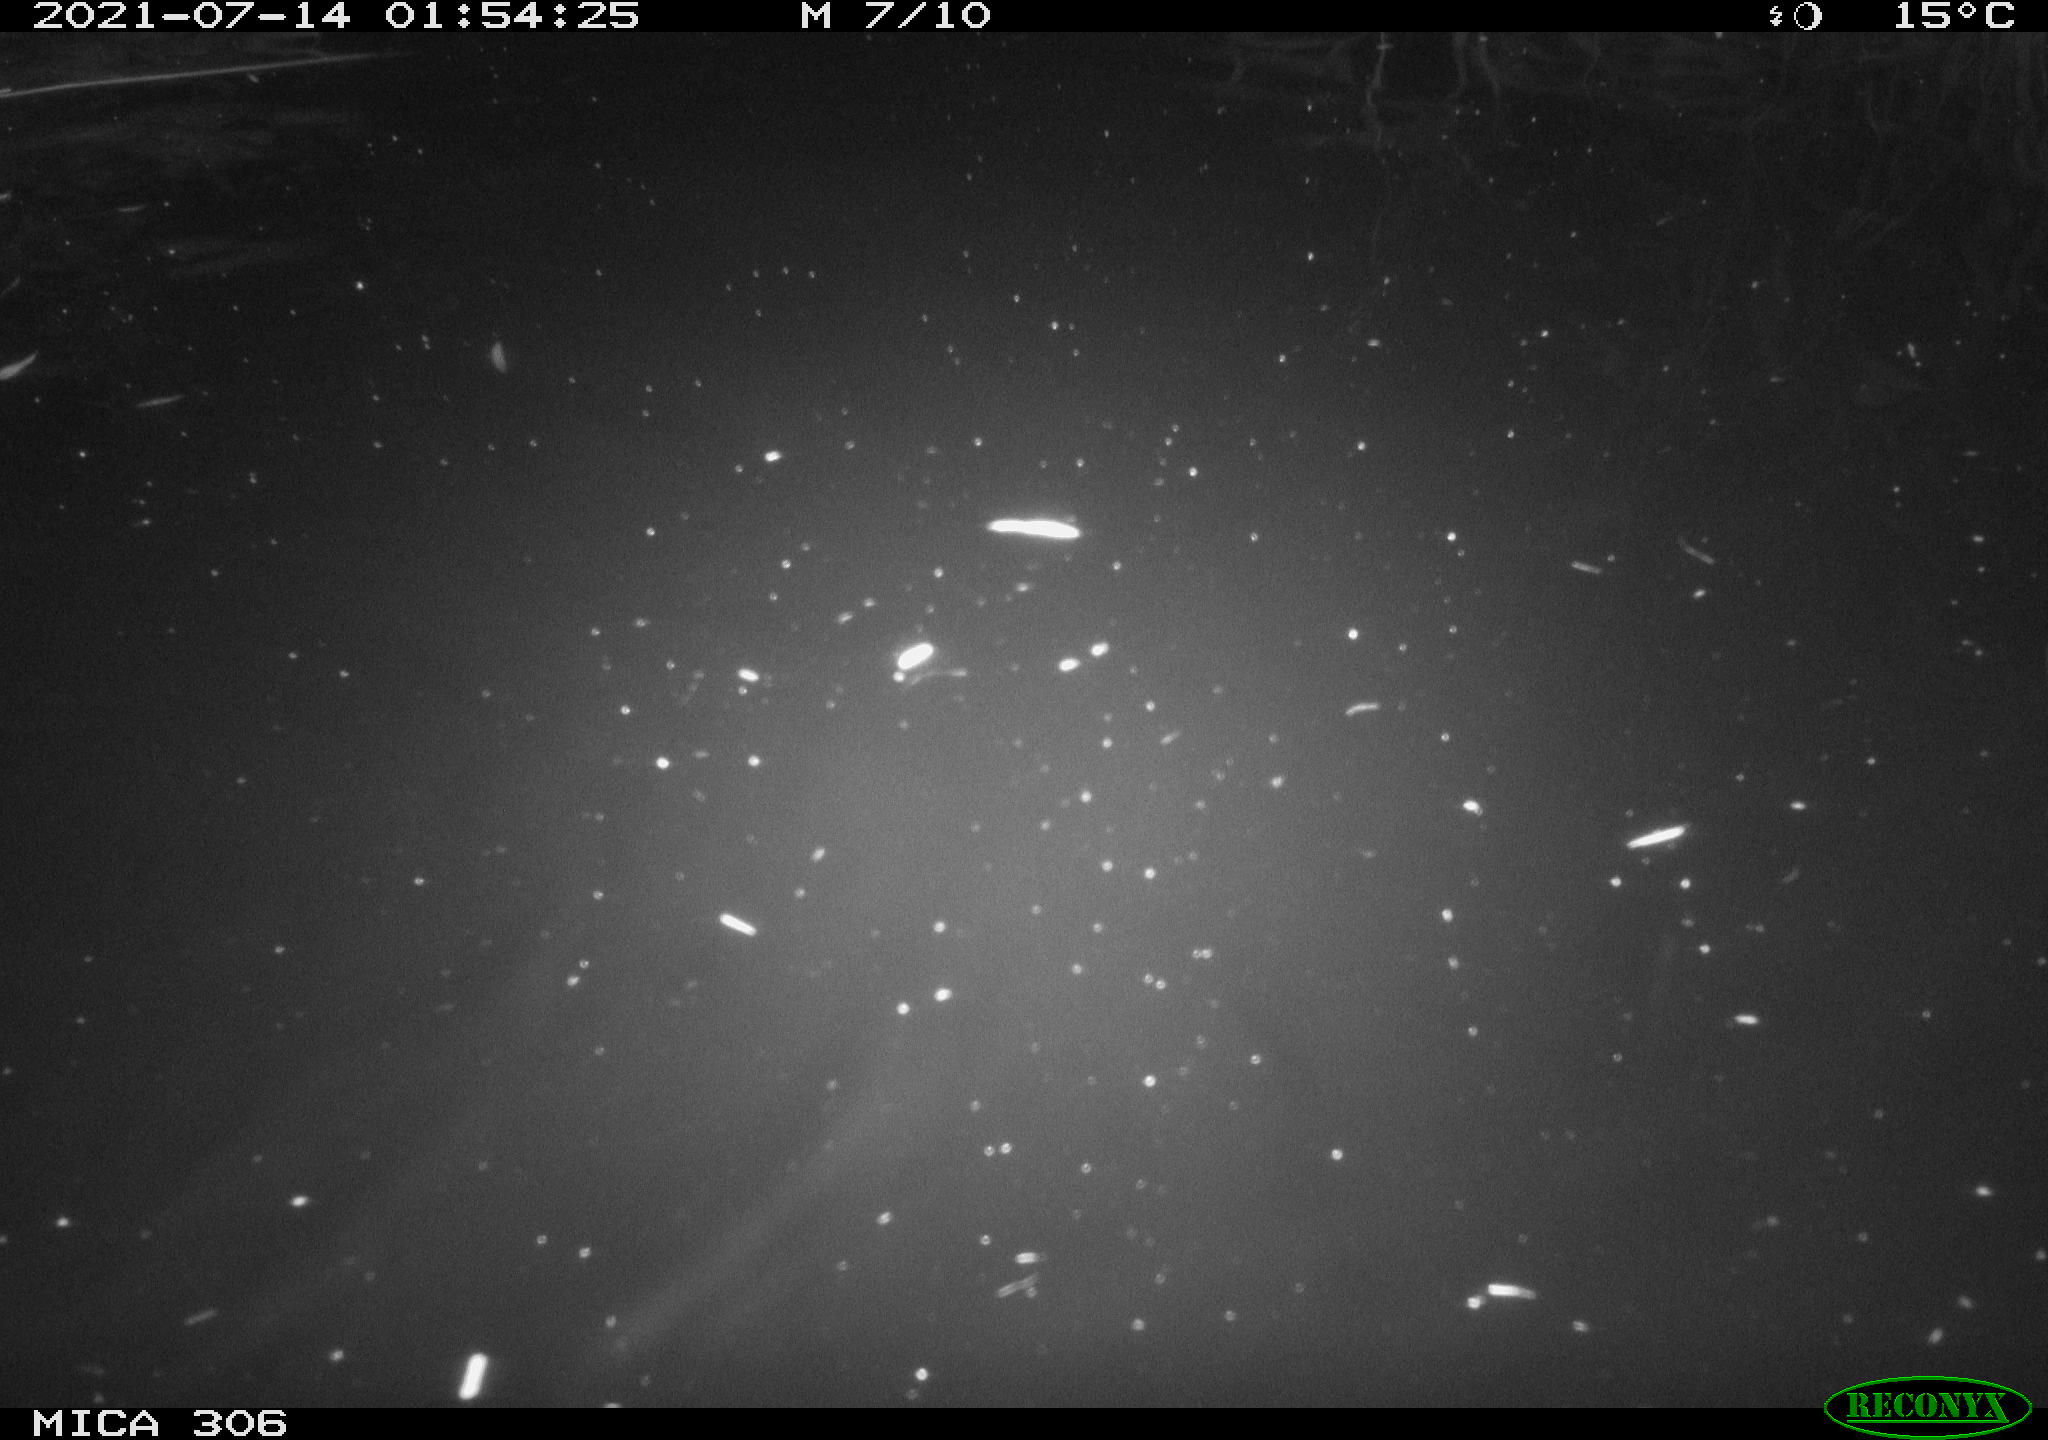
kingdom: Animalia
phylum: Chordata
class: Aves
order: Anseriformes
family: Anatidae
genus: Anas
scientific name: Anas
